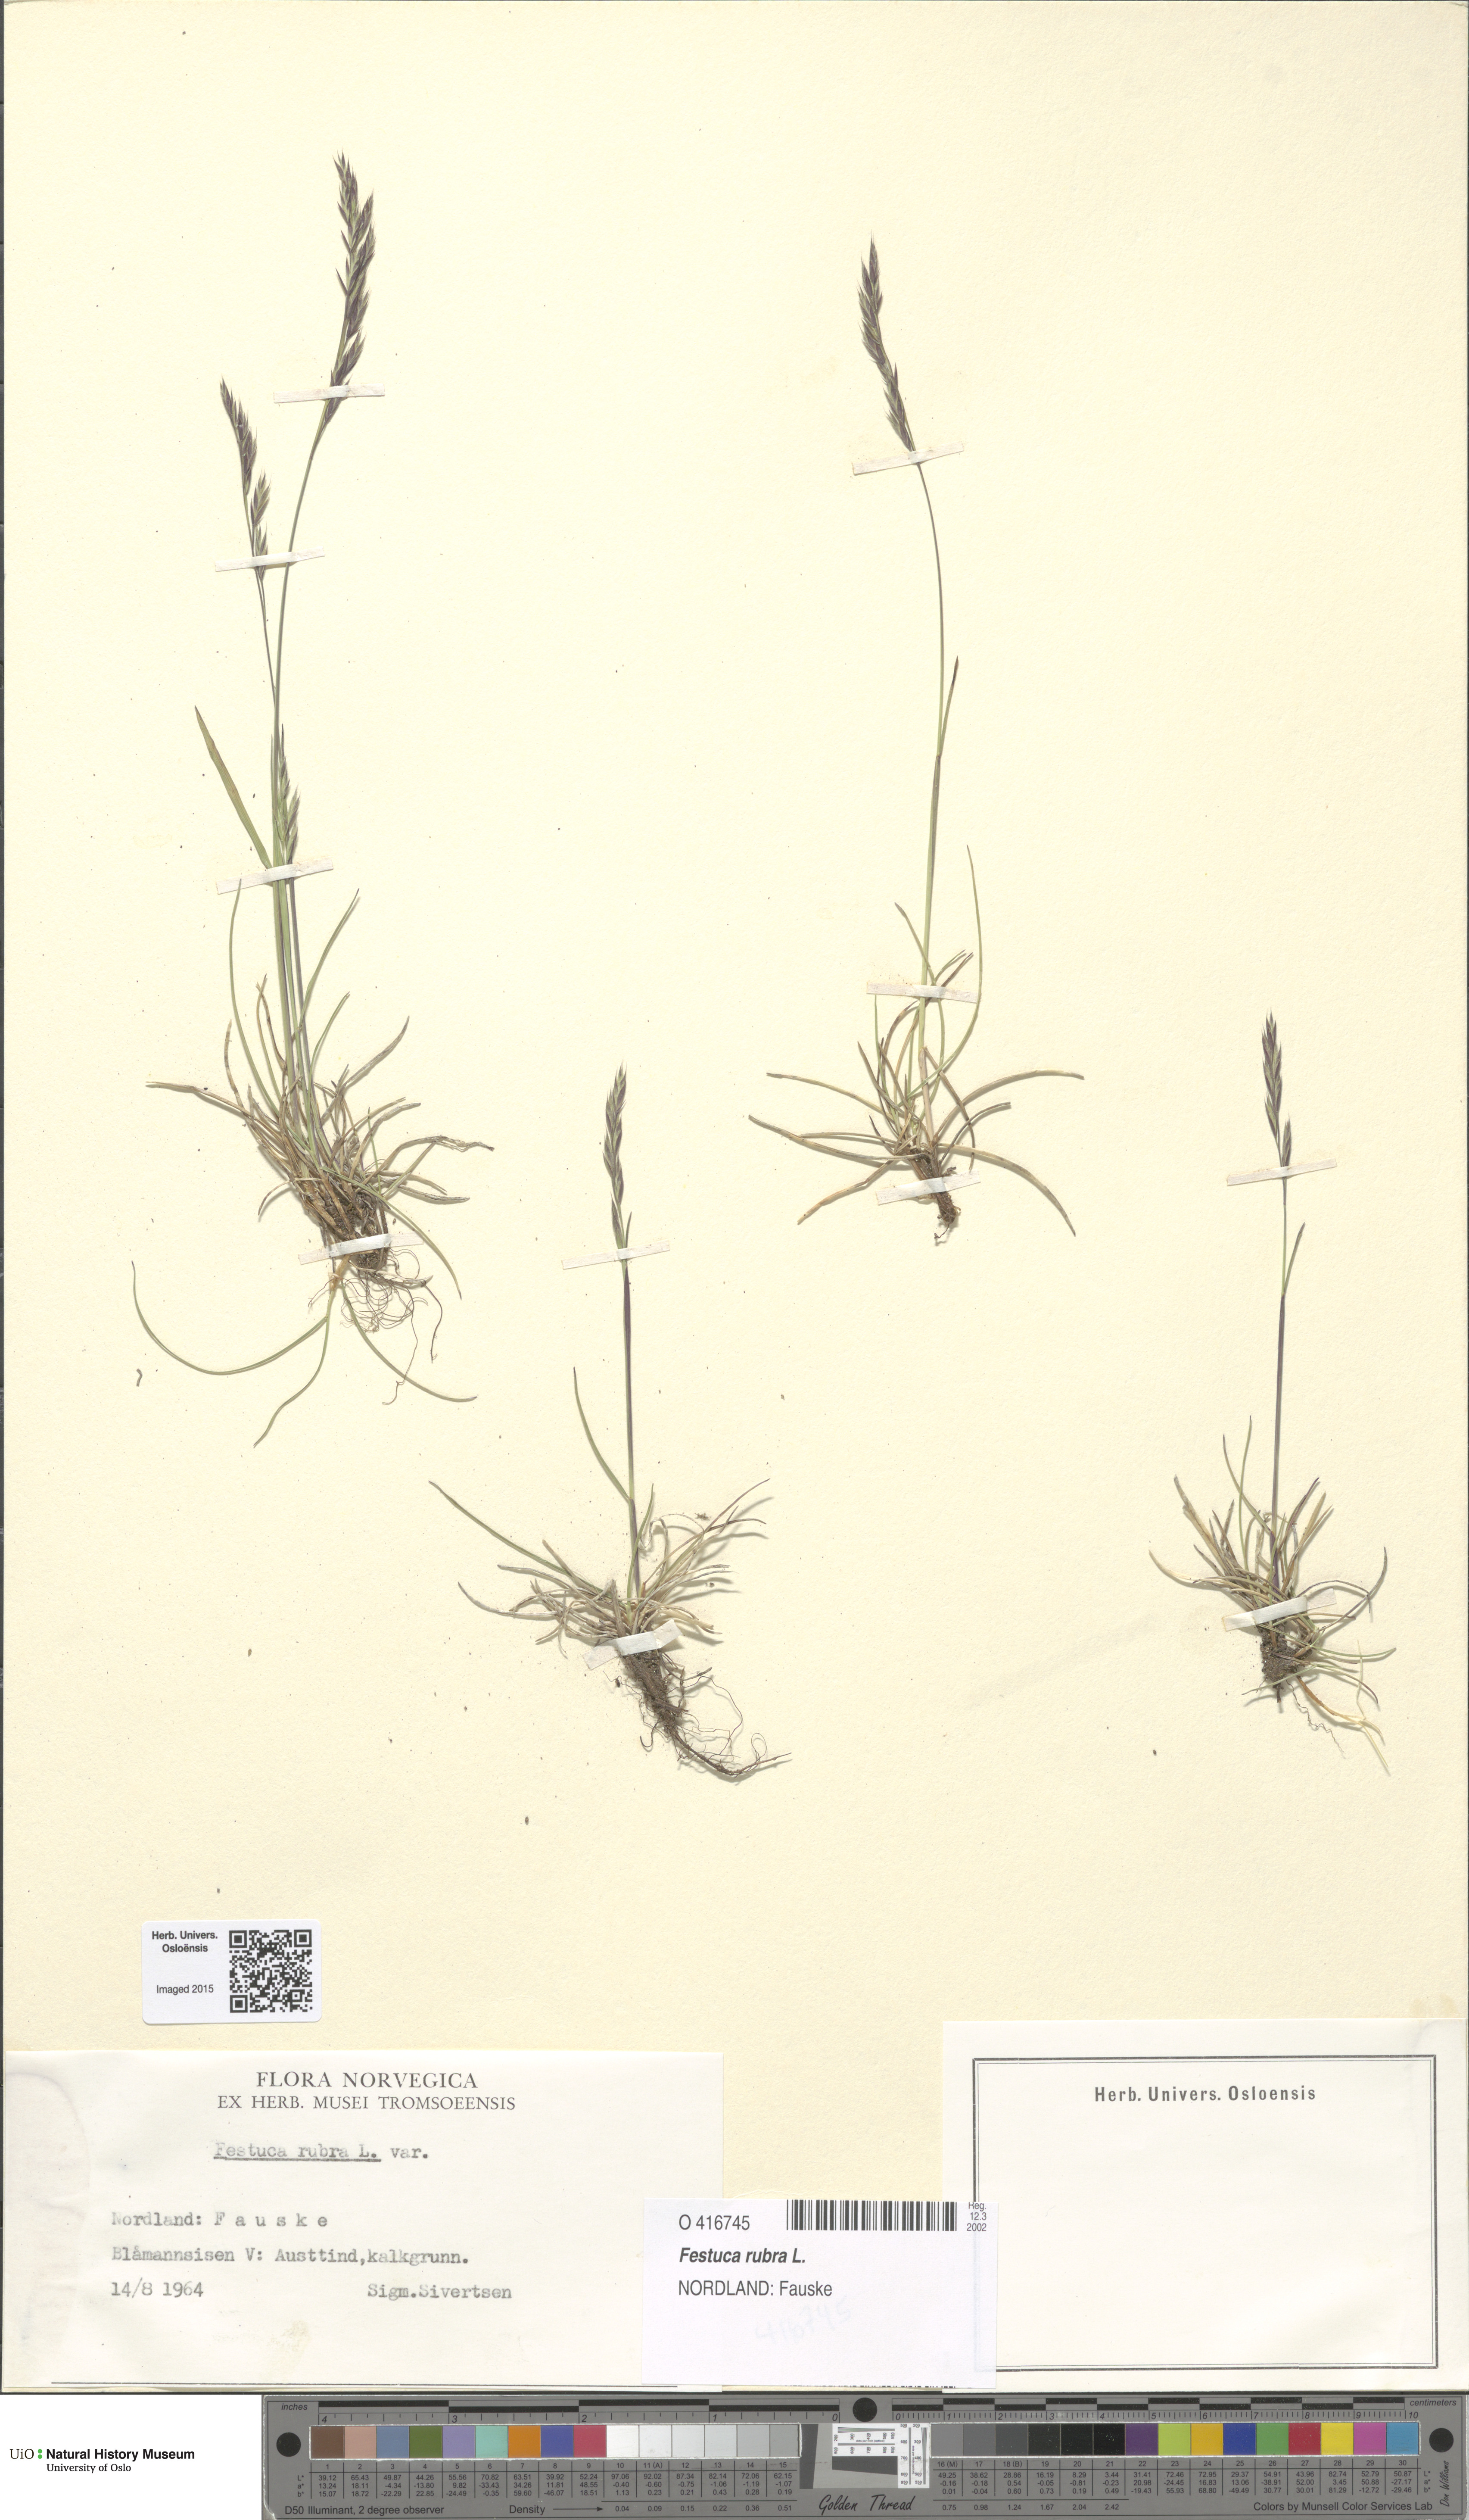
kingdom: Plantae
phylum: Tracheophyta
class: Liliopsida
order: Poales
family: Poaceae
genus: Festuca
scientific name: Festuca rubra
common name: Red fescue
